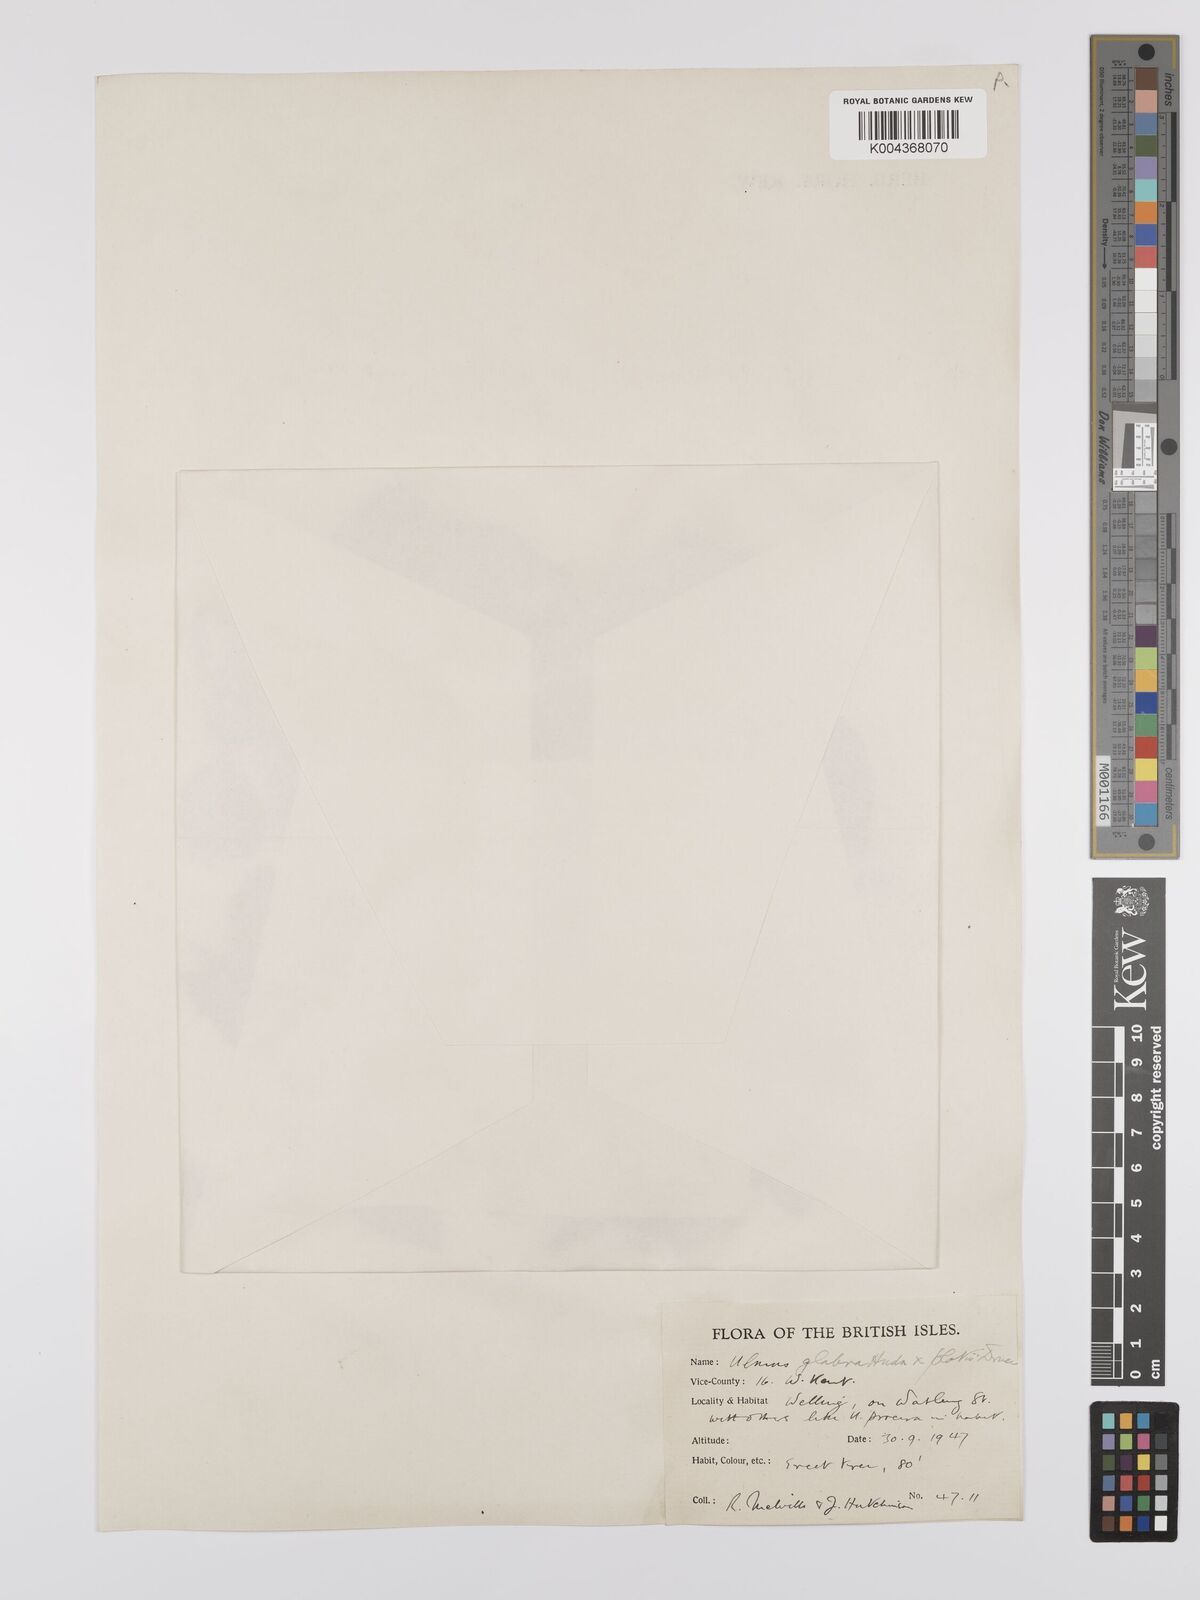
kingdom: Plantae
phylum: Tracheophyta
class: Magnoliopsida
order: Rosales
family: Ulmaceae
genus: Ulmus
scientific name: Ulmus
